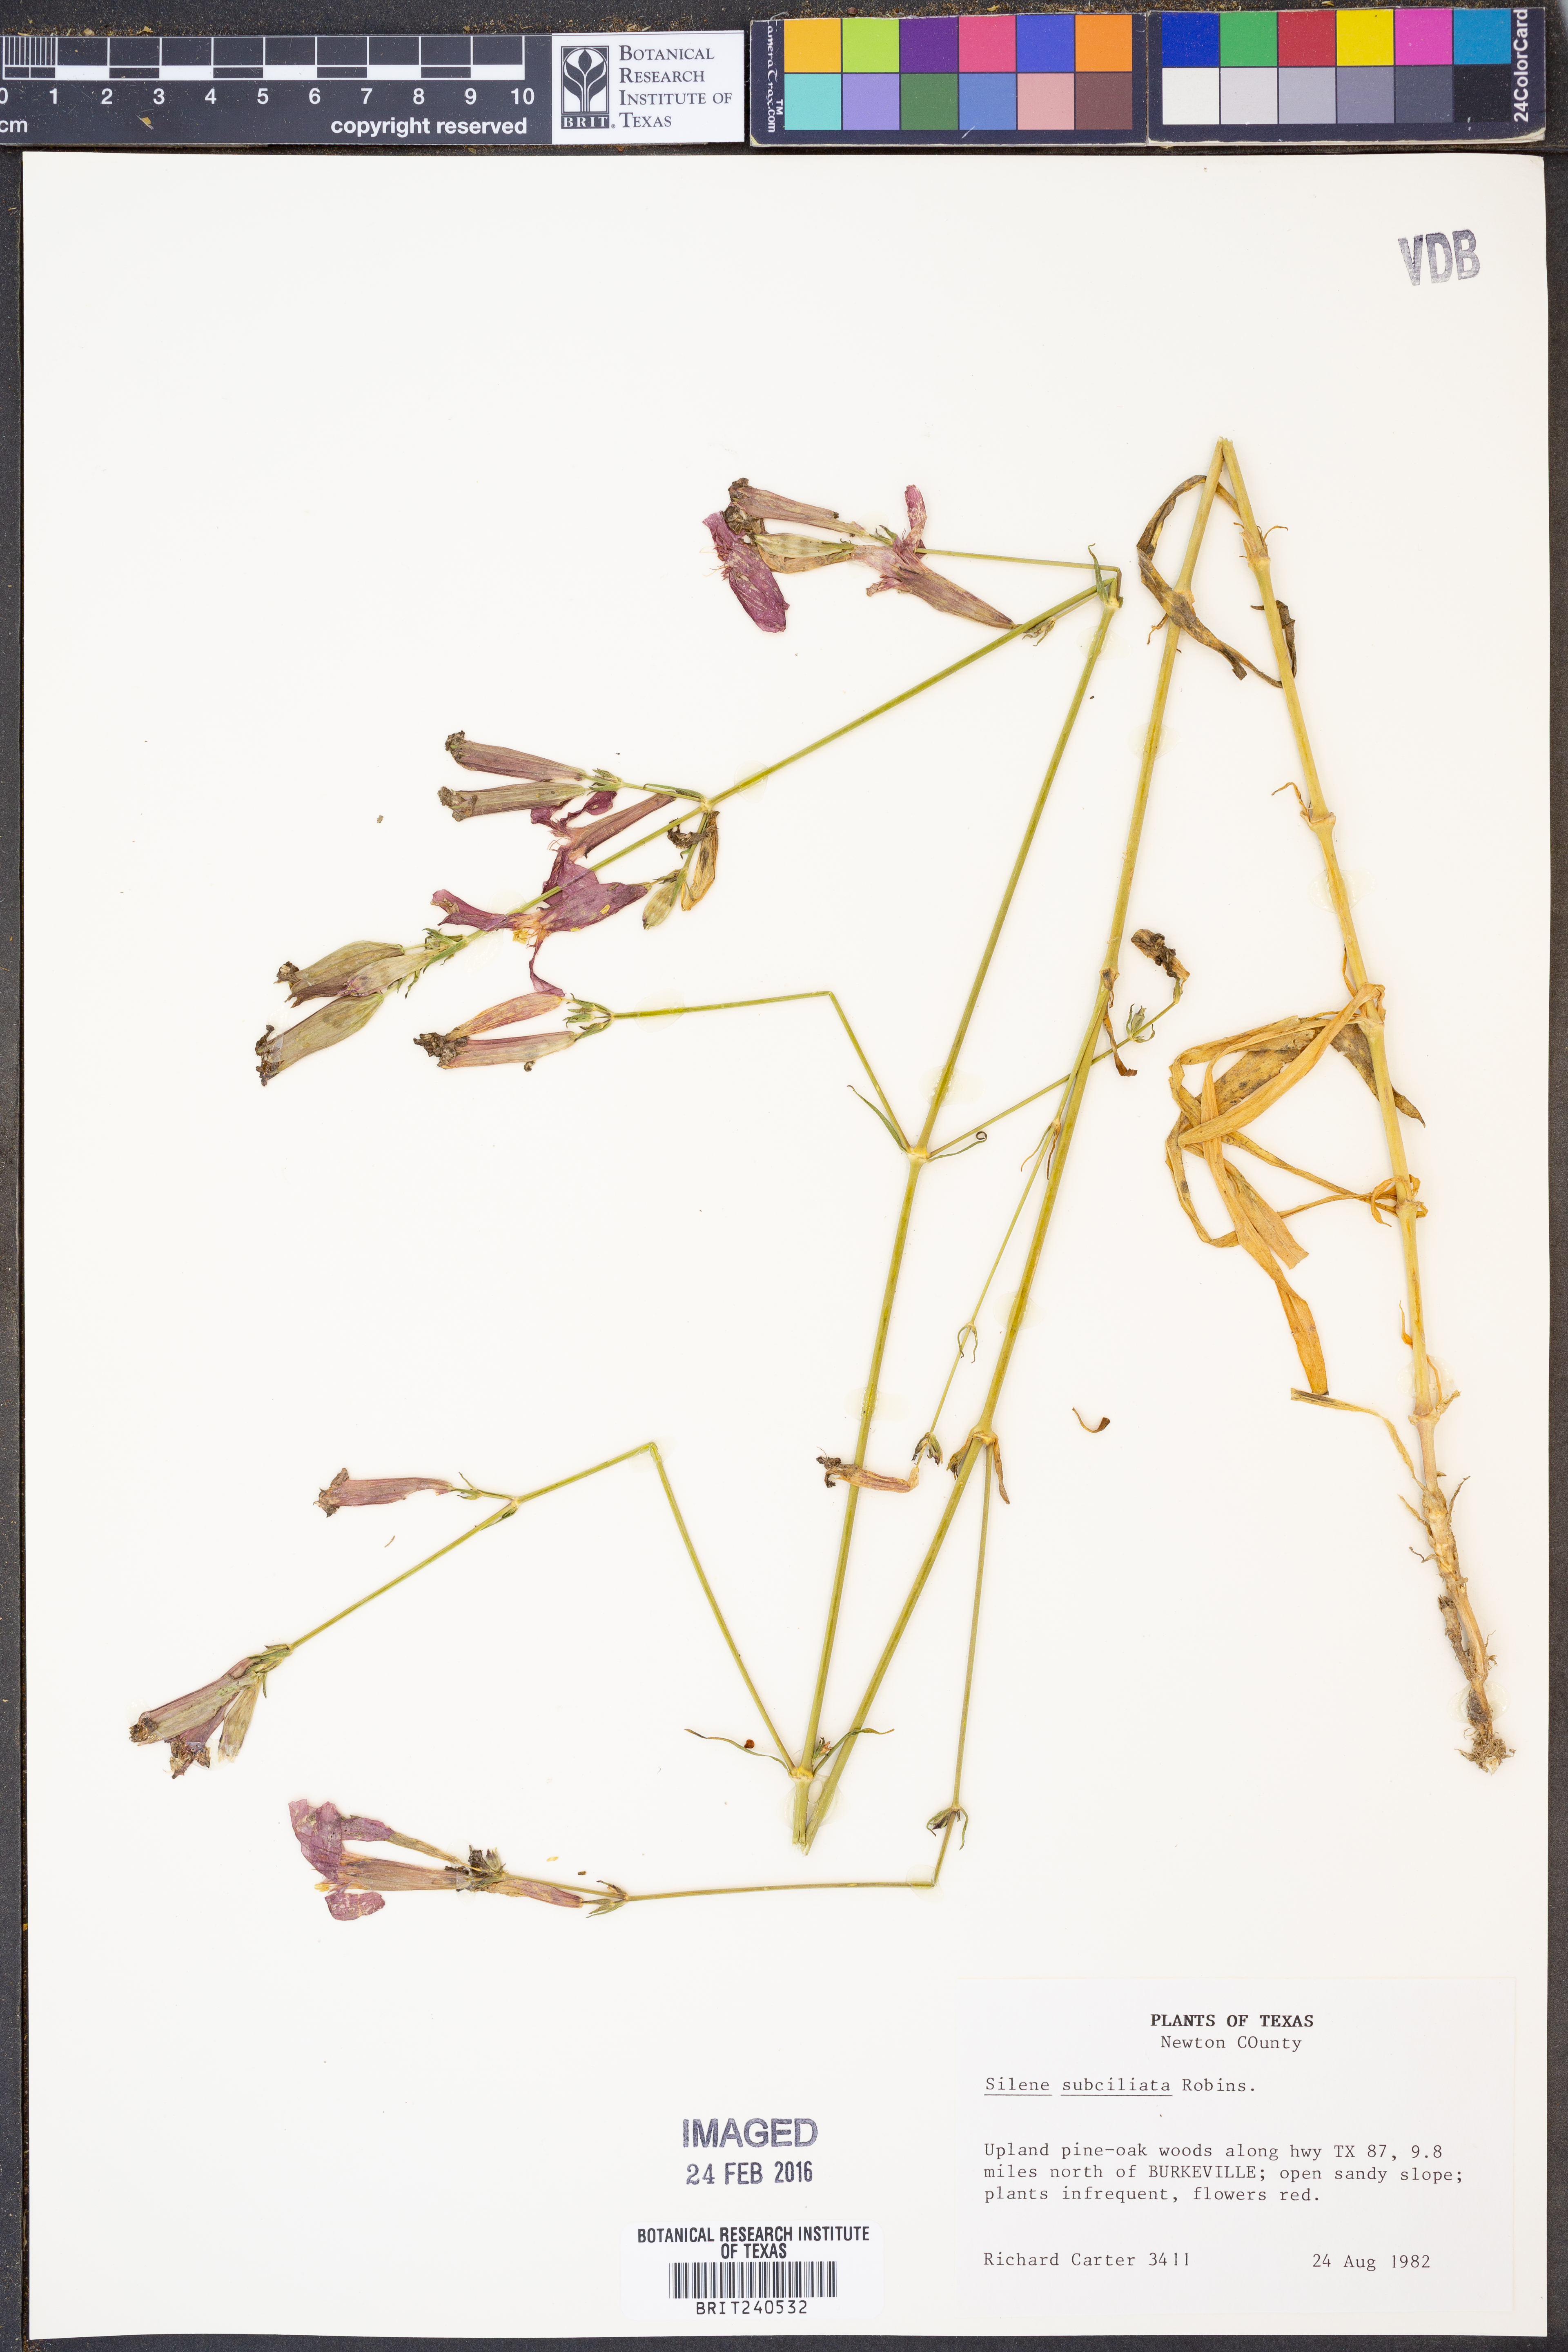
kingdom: Plantae
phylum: Tracheophyta
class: Magnoliopsida
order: Caryophyllales
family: Caryophyllaceae
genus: Silene
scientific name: Silene subciliata
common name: Prairie fire-pink
